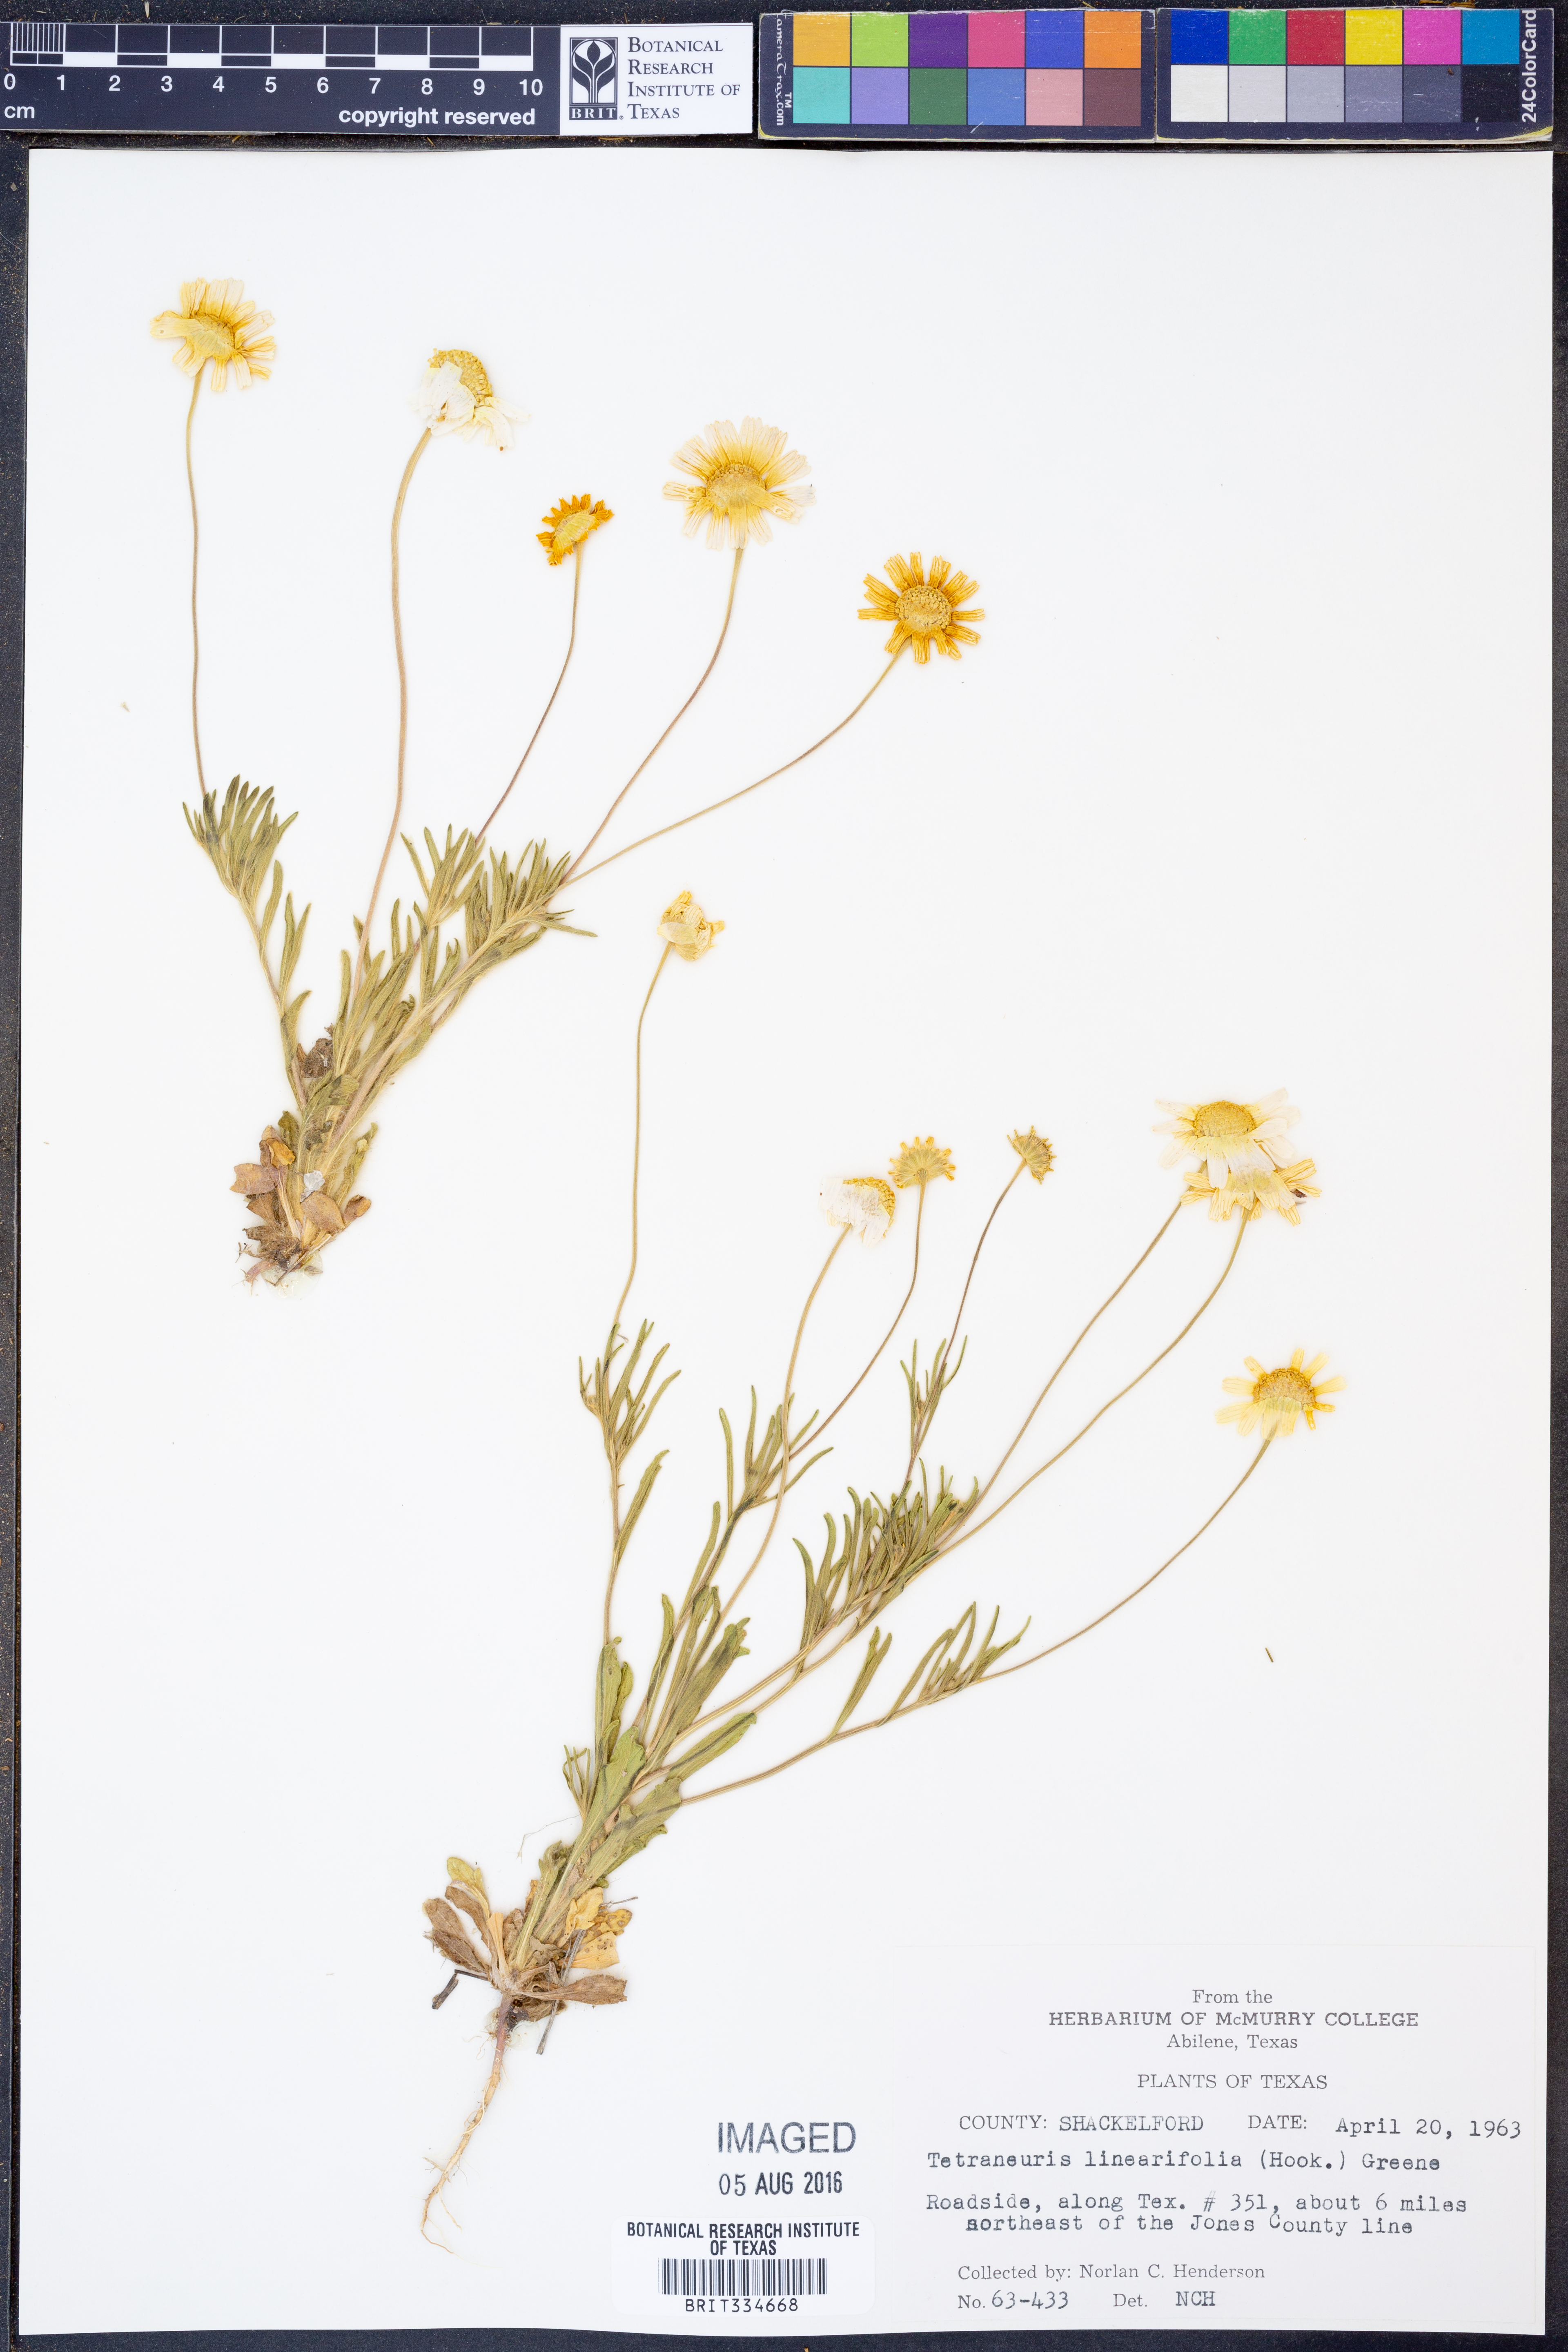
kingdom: Plantae
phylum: Tracheophyta
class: Magnoliopsida
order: Asterales
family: Asteraceae
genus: Tetraneuris
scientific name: Tetraneuris linearifolia
